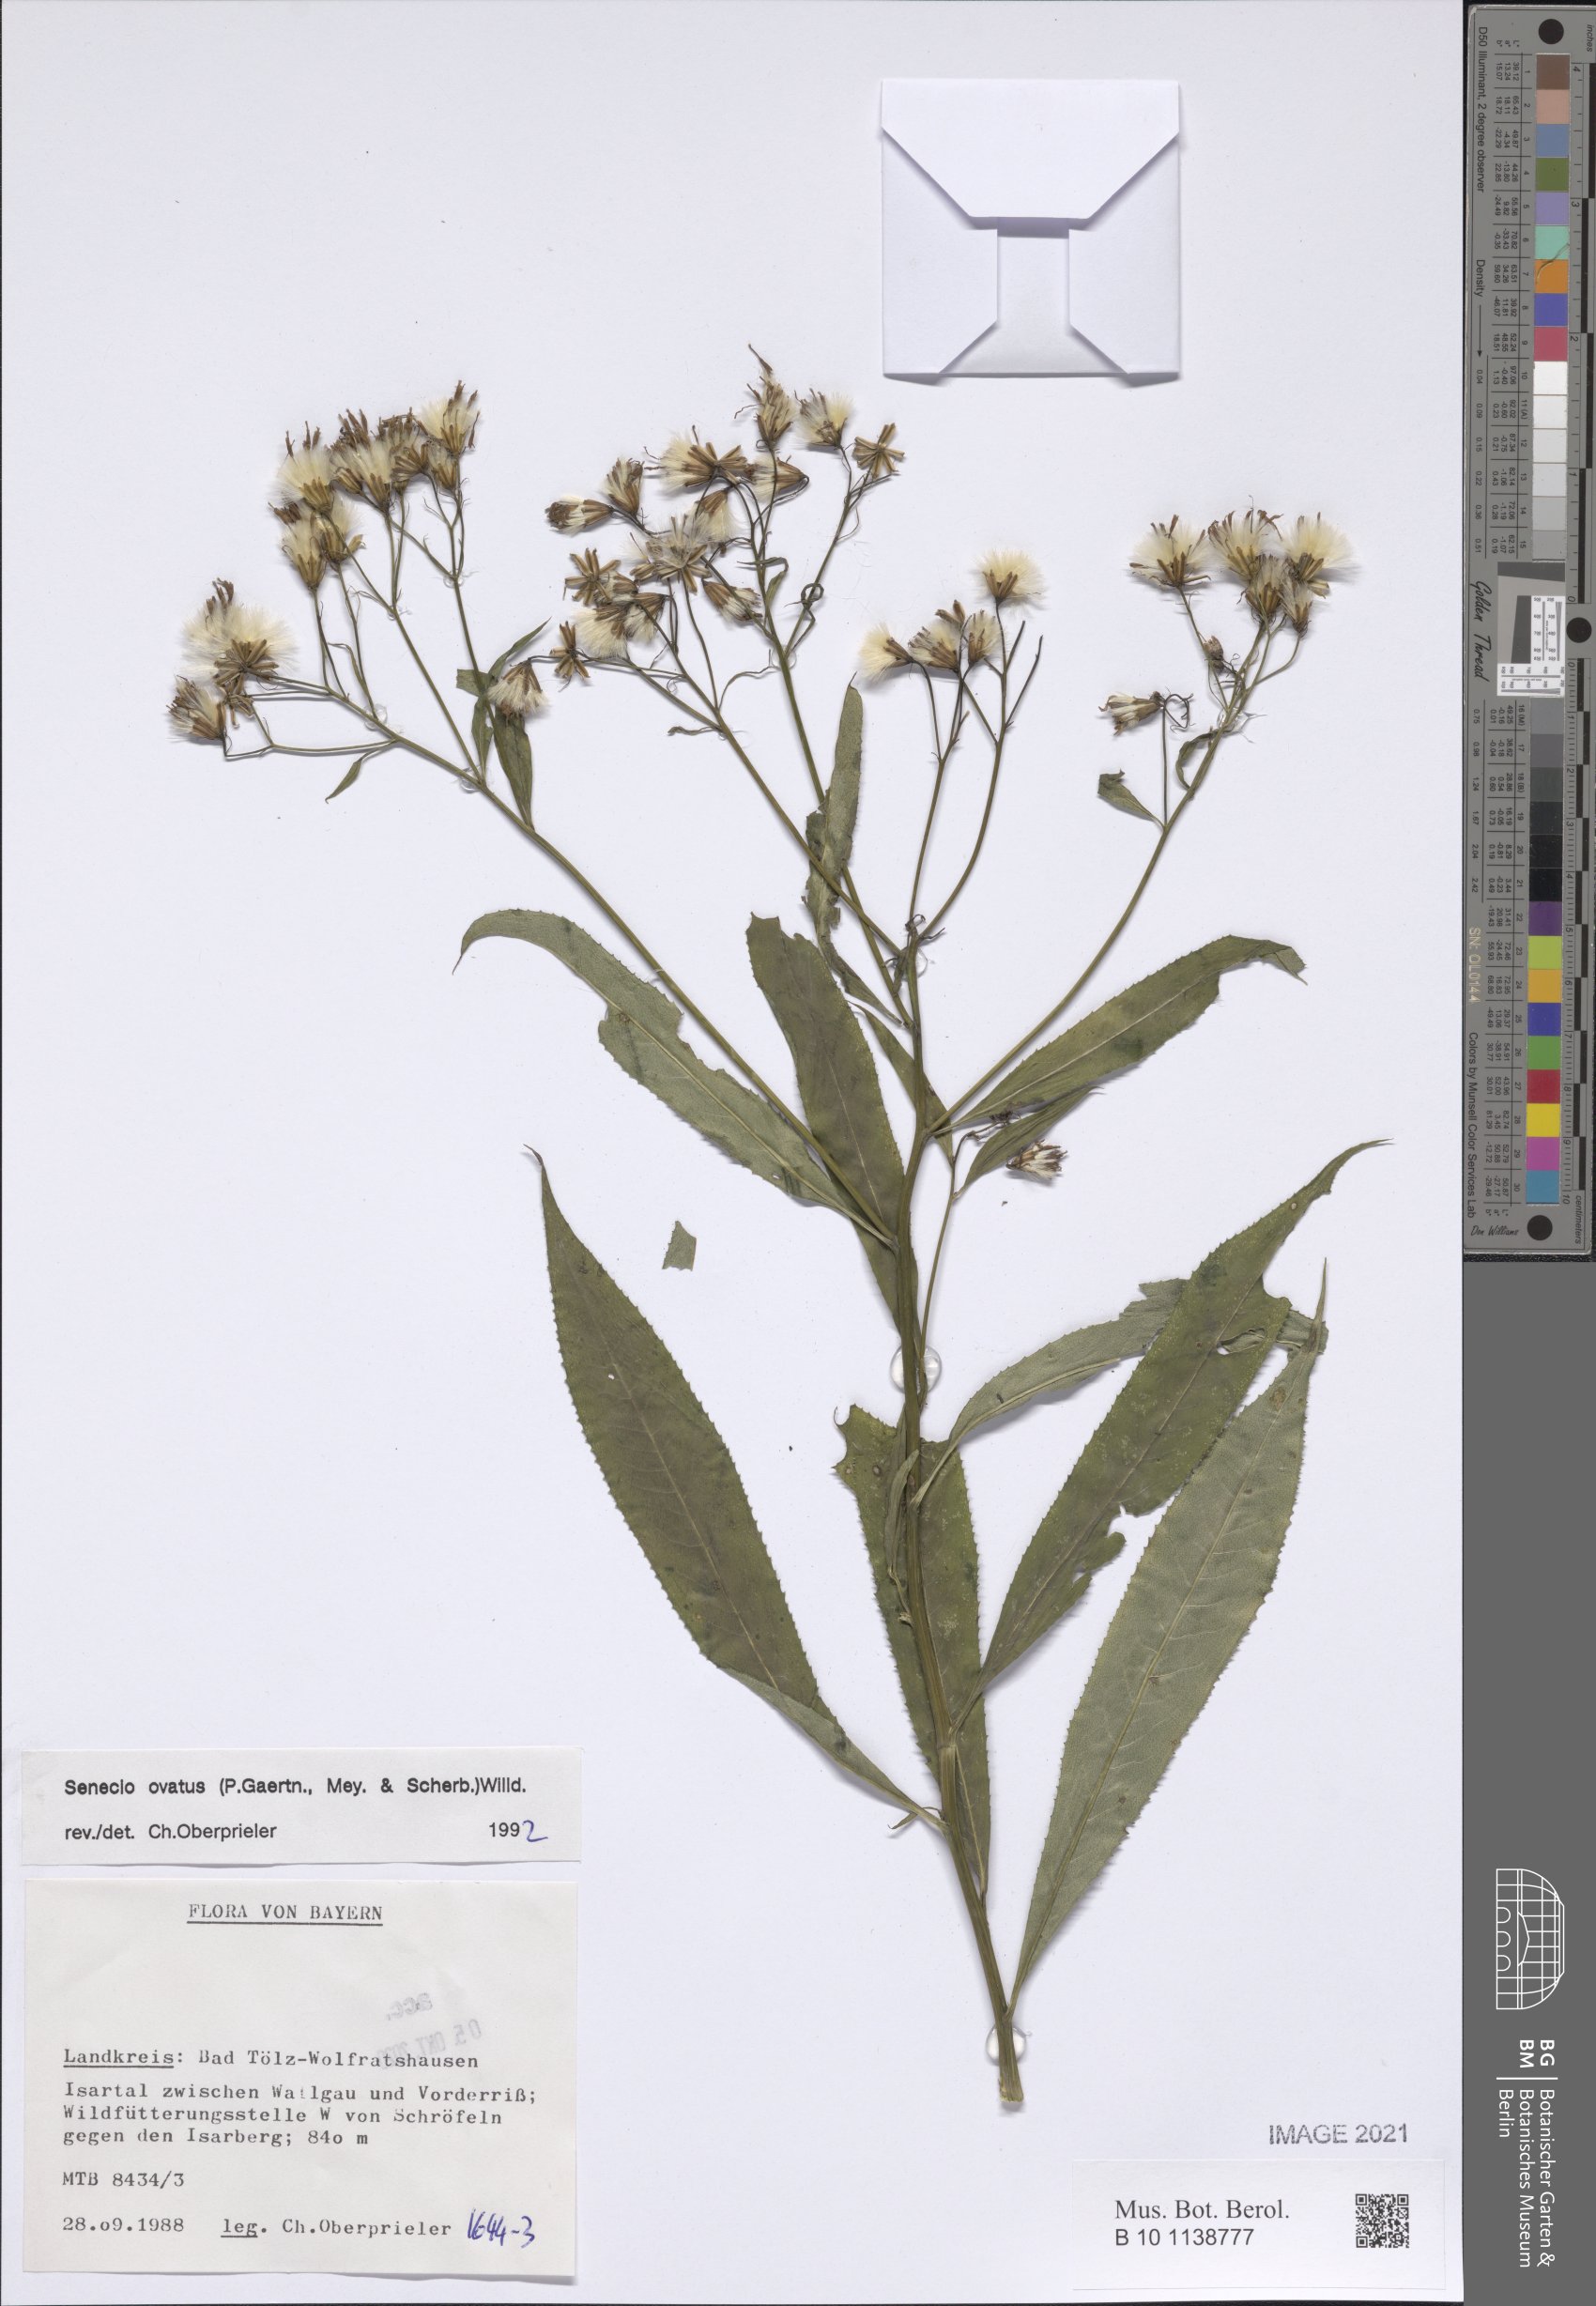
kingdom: Plantae
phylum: Tracheophyta
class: Magnoliopsida
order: Asterales
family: Asteraceae
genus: Senecio
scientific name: Senecio ovatus
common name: Wood ragwort
